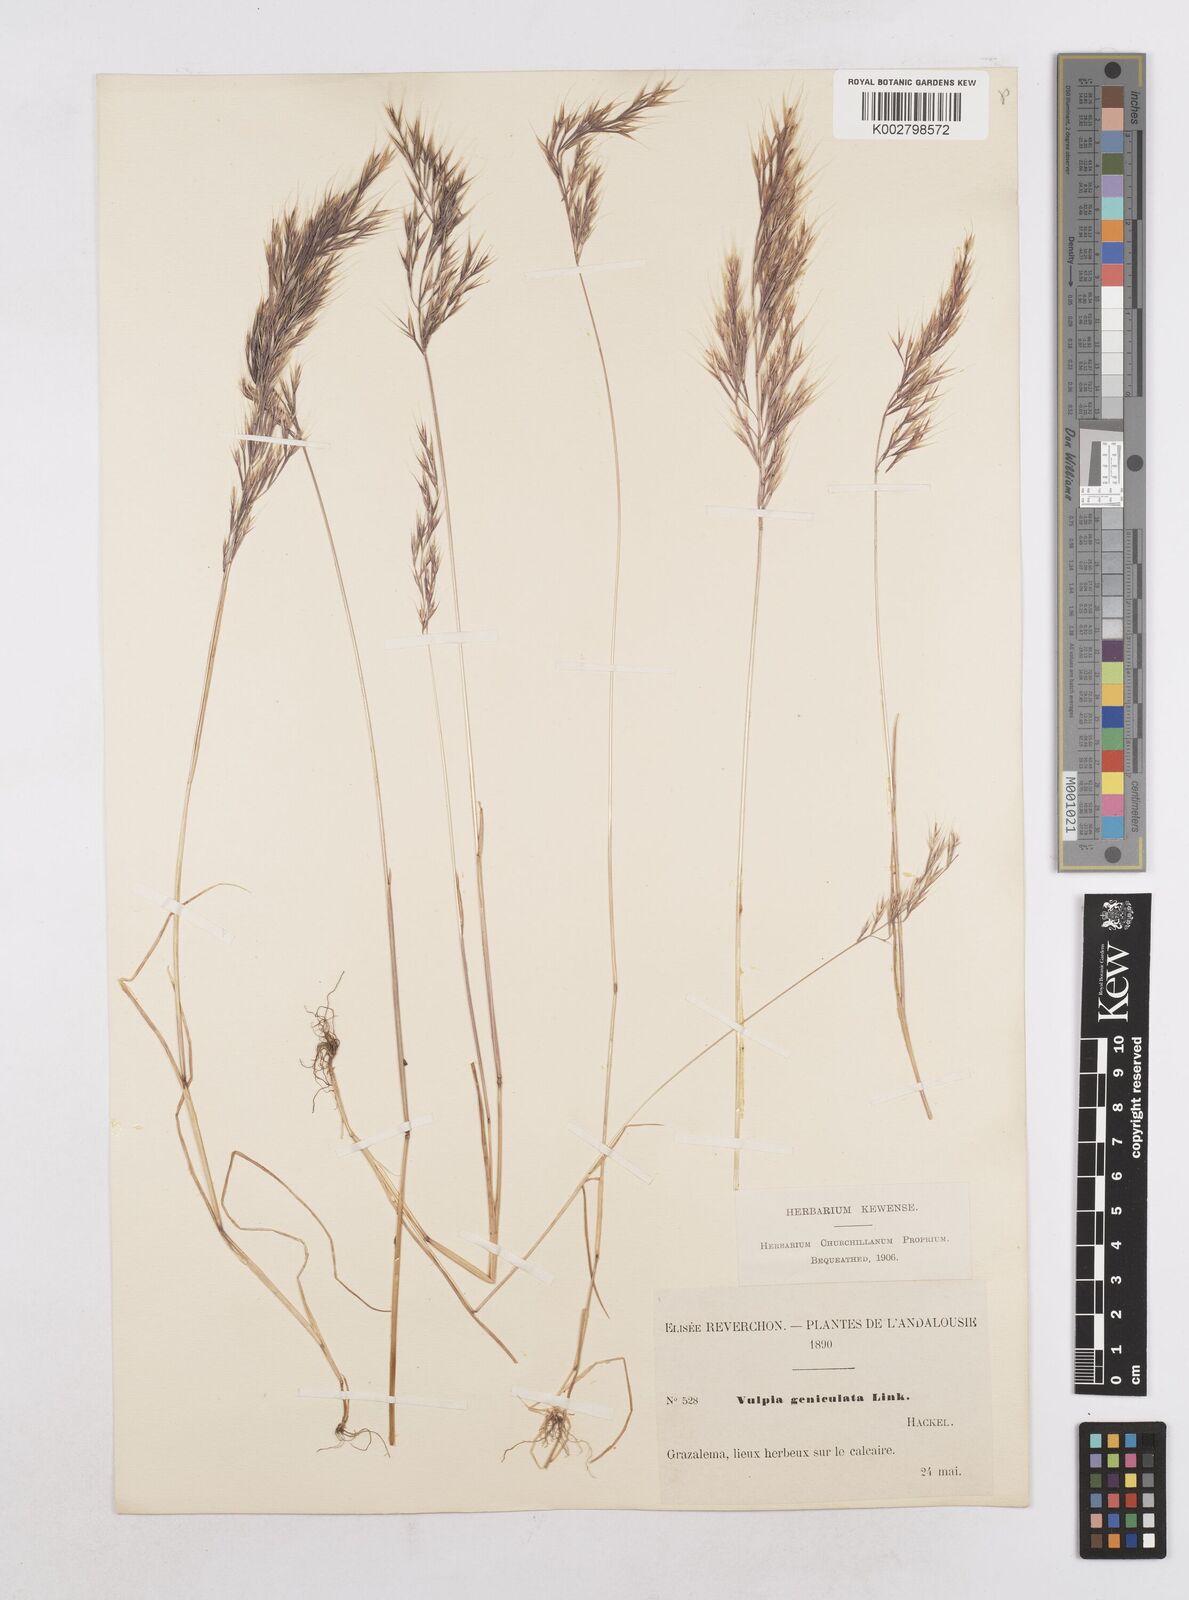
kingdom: Plantae
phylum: Tracheophyta
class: Liliopsida
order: Poales
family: Poaceae
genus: Festuca
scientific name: Festuca geniculata
